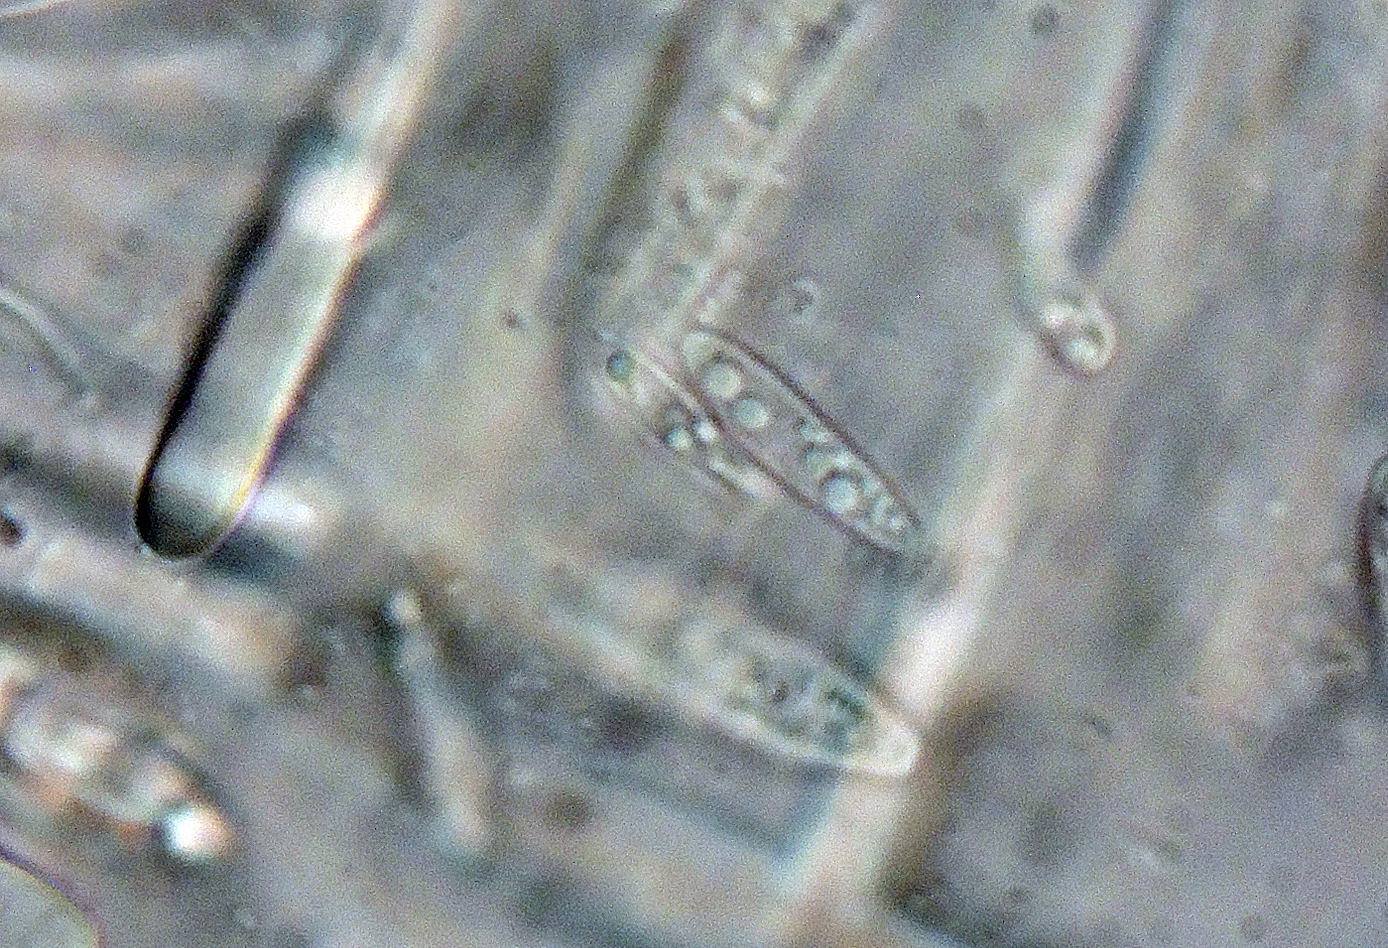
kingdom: Fungi
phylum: Ascomycota
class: Leotiomycetes
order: Helotiales
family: Mollisiaceae
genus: Mollisia
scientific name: Mollisia prunicola
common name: slåen-gråskive
